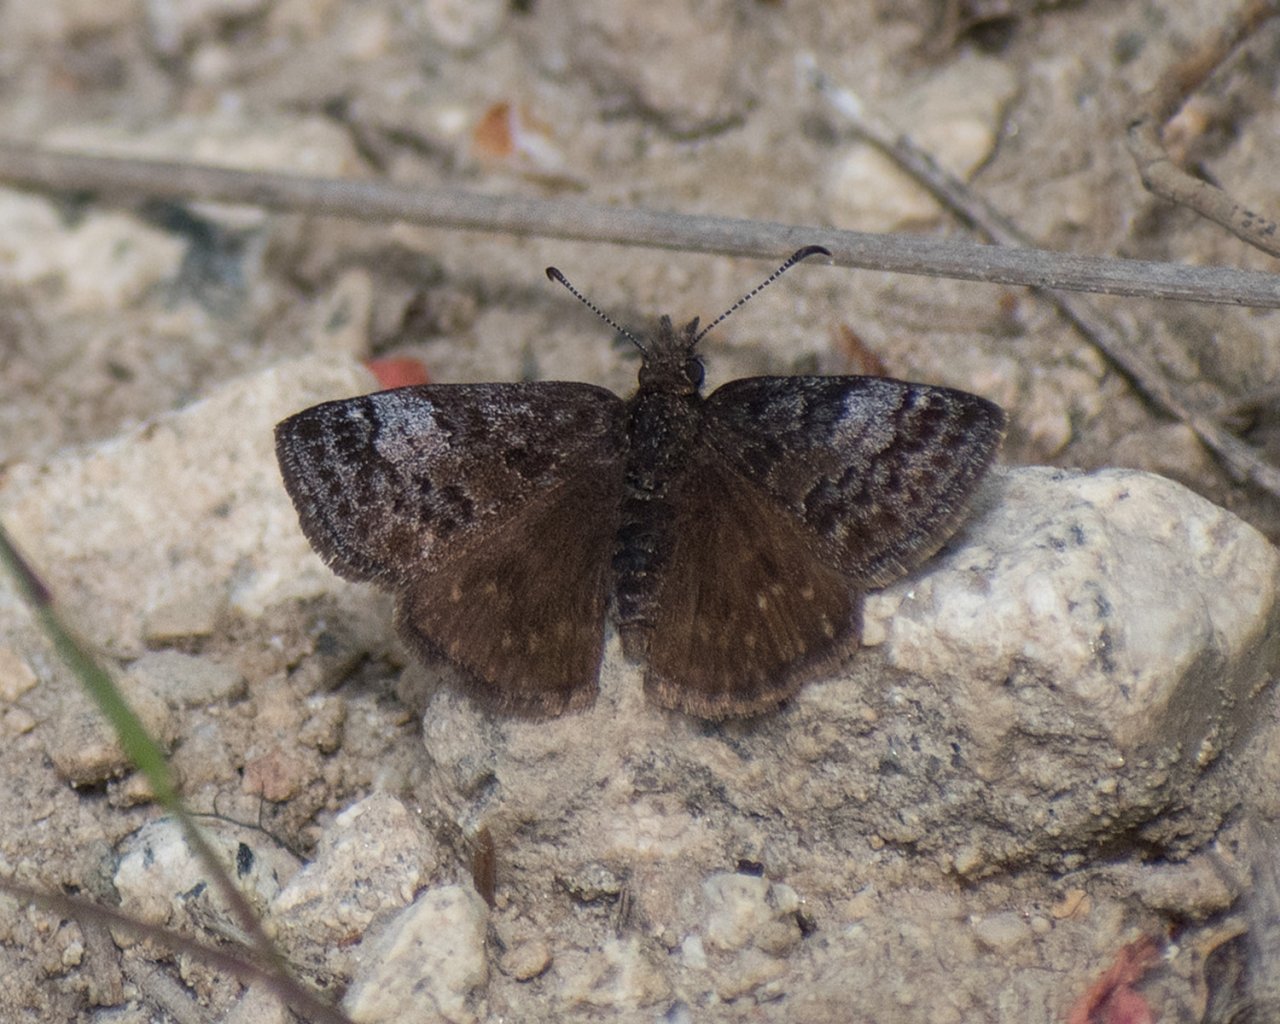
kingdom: Animalia
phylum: Arthropoda
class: Insecta
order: Lepidoptera
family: Hesperiidae
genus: Erynnis
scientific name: Erynnis icelus
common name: Dreamy Duskywing
